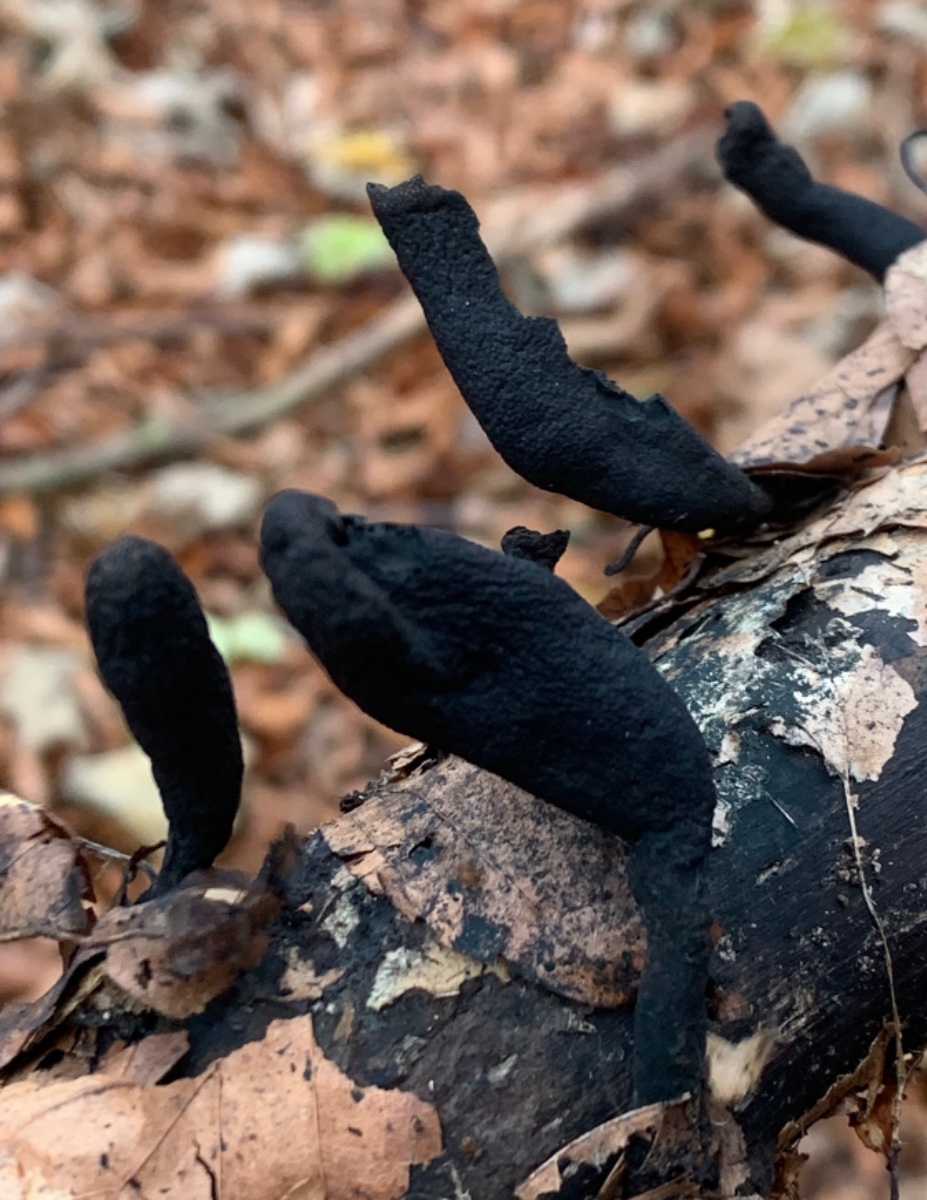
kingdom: Fungi
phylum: Ascomycota
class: Sordariomycetes
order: Xylariales
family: Xylariaceae
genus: Xylaria
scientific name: Xylaria longipes
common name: slank stødsvamp
